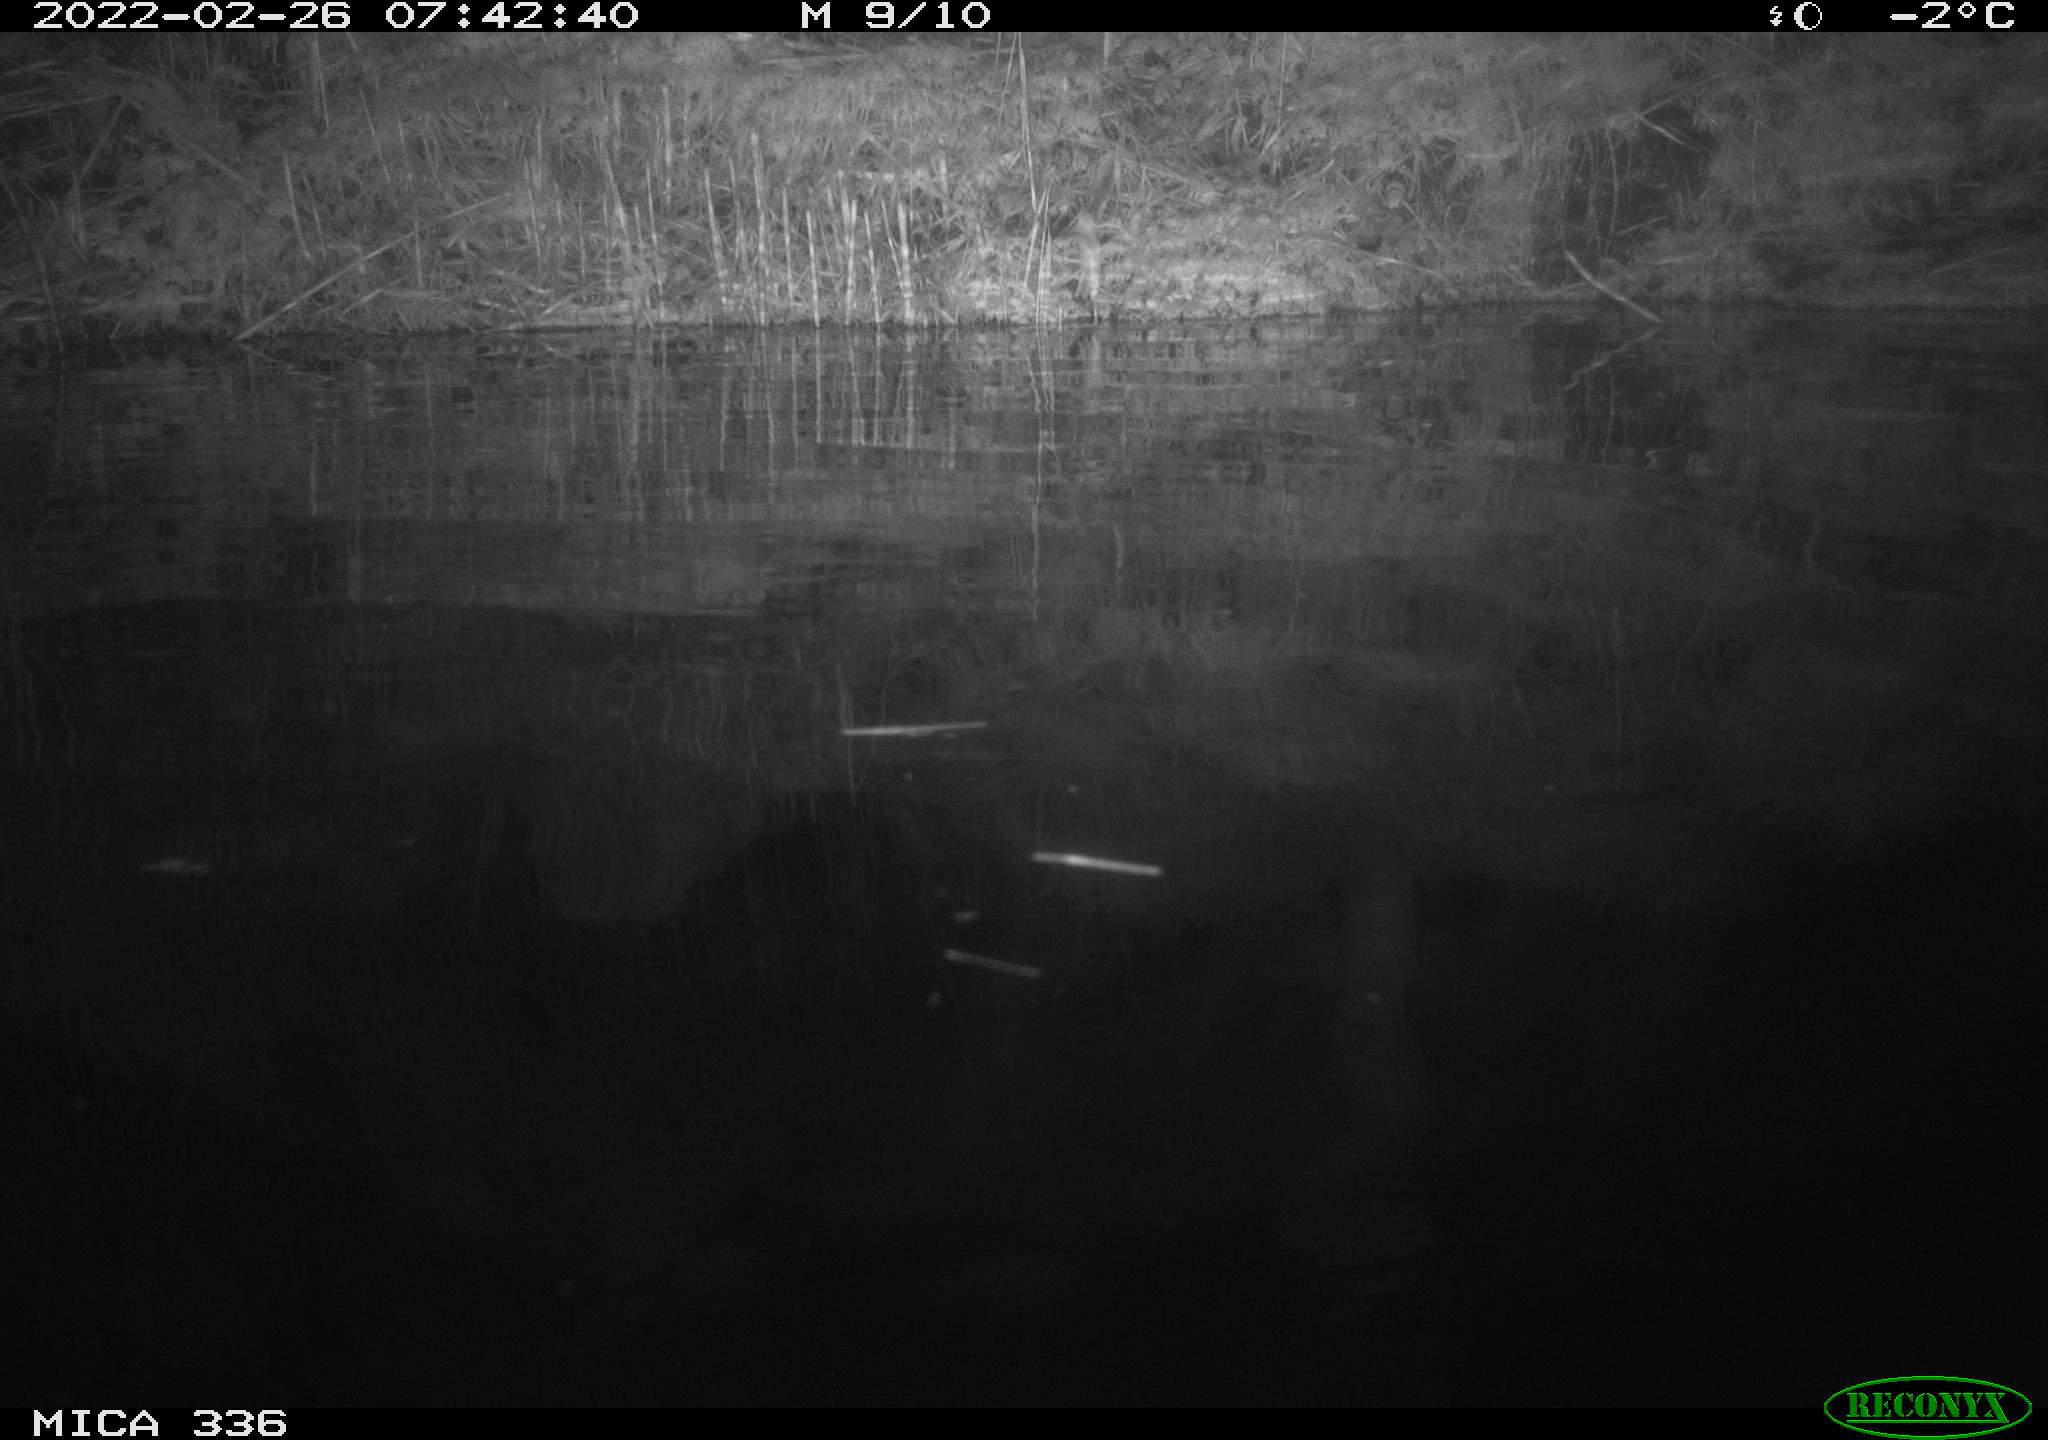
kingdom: Animalia
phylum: Chordata
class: Aves
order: Podicipediformes
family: Podicipedidae
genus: Podiceps
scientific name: Podiceps cristatus
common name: Great crested grebe
